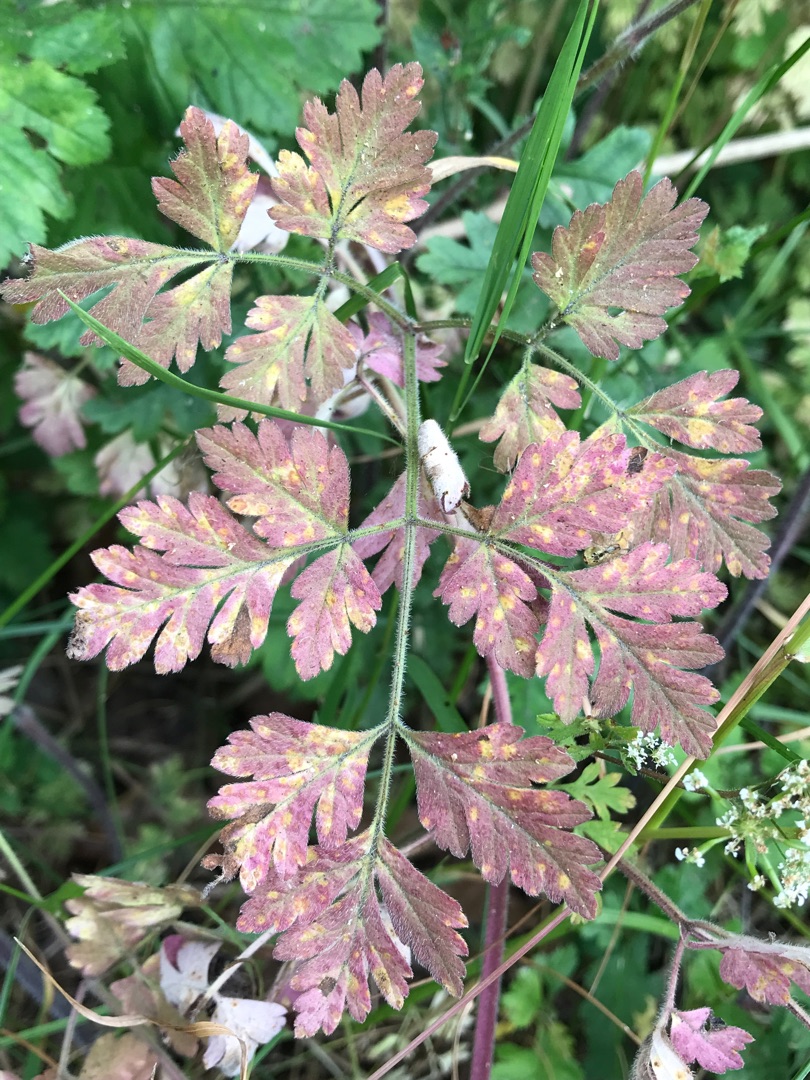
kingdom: Plantae
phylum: Tracheophyta
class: Magnoliopsida
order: Apiales
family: Apiaceae
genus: Chaerophyllum
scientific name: Chaerophyllum temulum
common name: Almindelig hulsvøb
